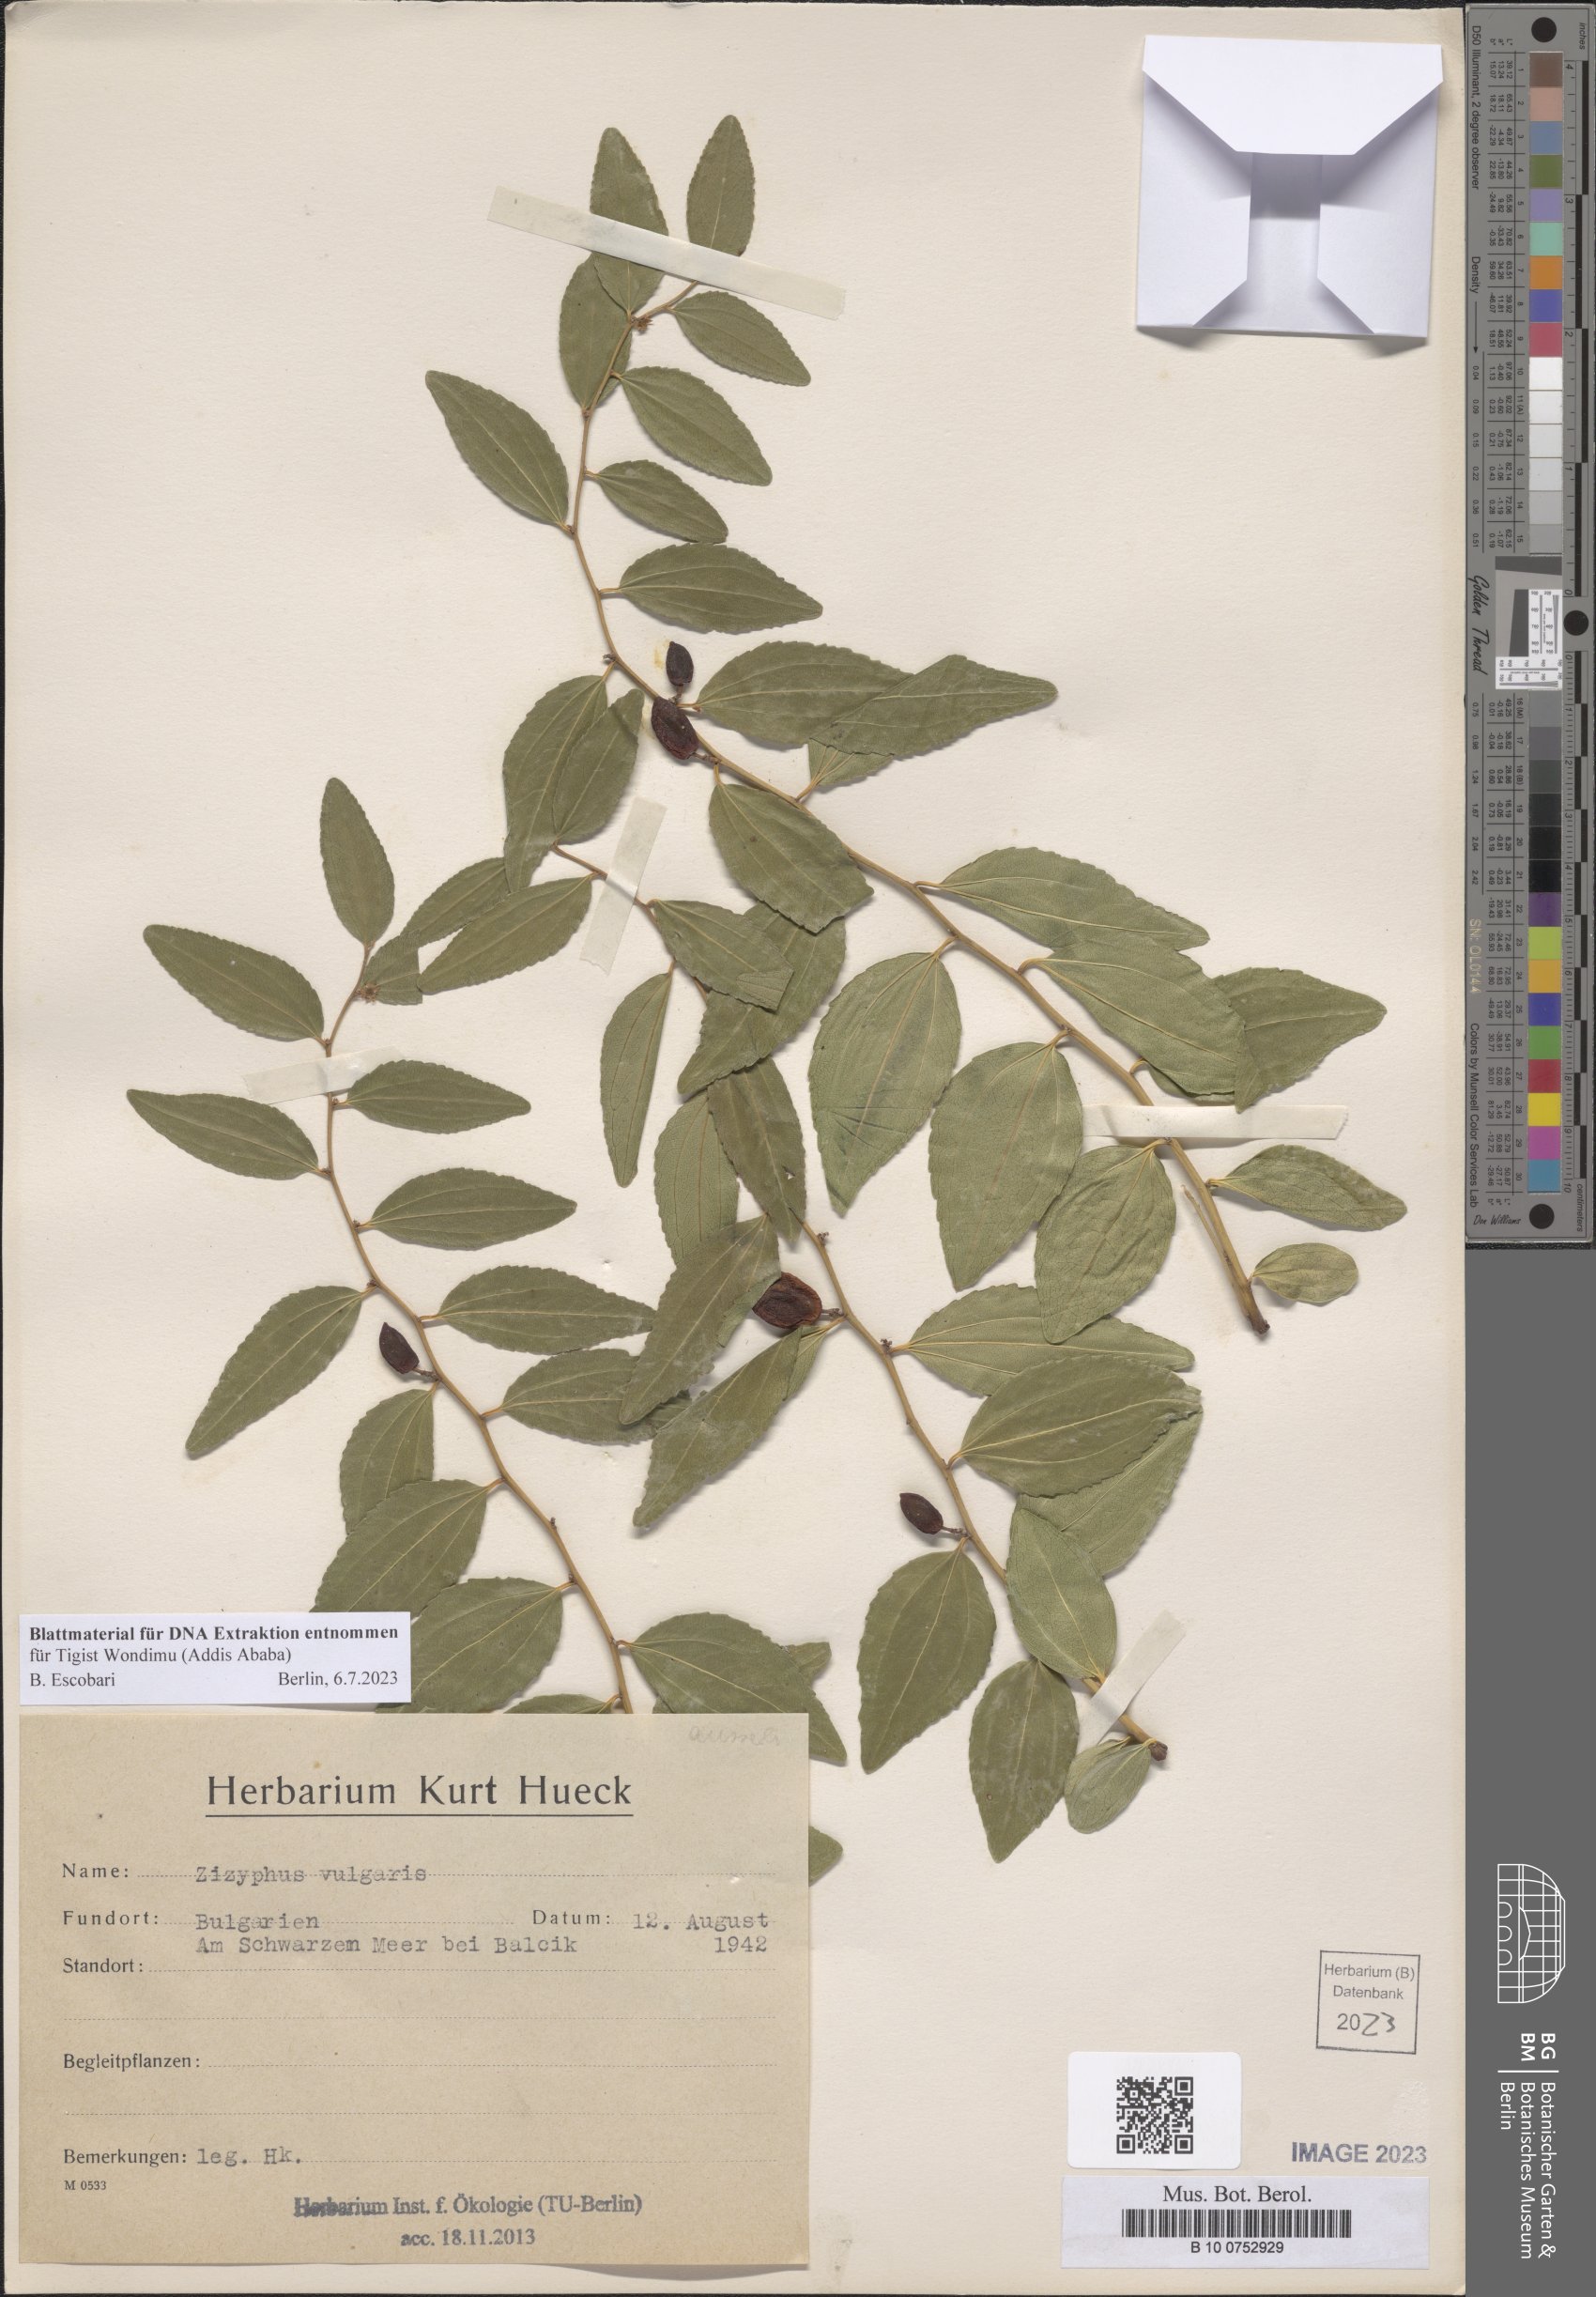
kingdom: Plantae
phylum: Tracheophyta
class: Magnoliopsida
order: Rosales
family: Rhamnaceae
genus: Ziziphus
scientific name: Ziziphus jujuba
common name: Jujube red date
